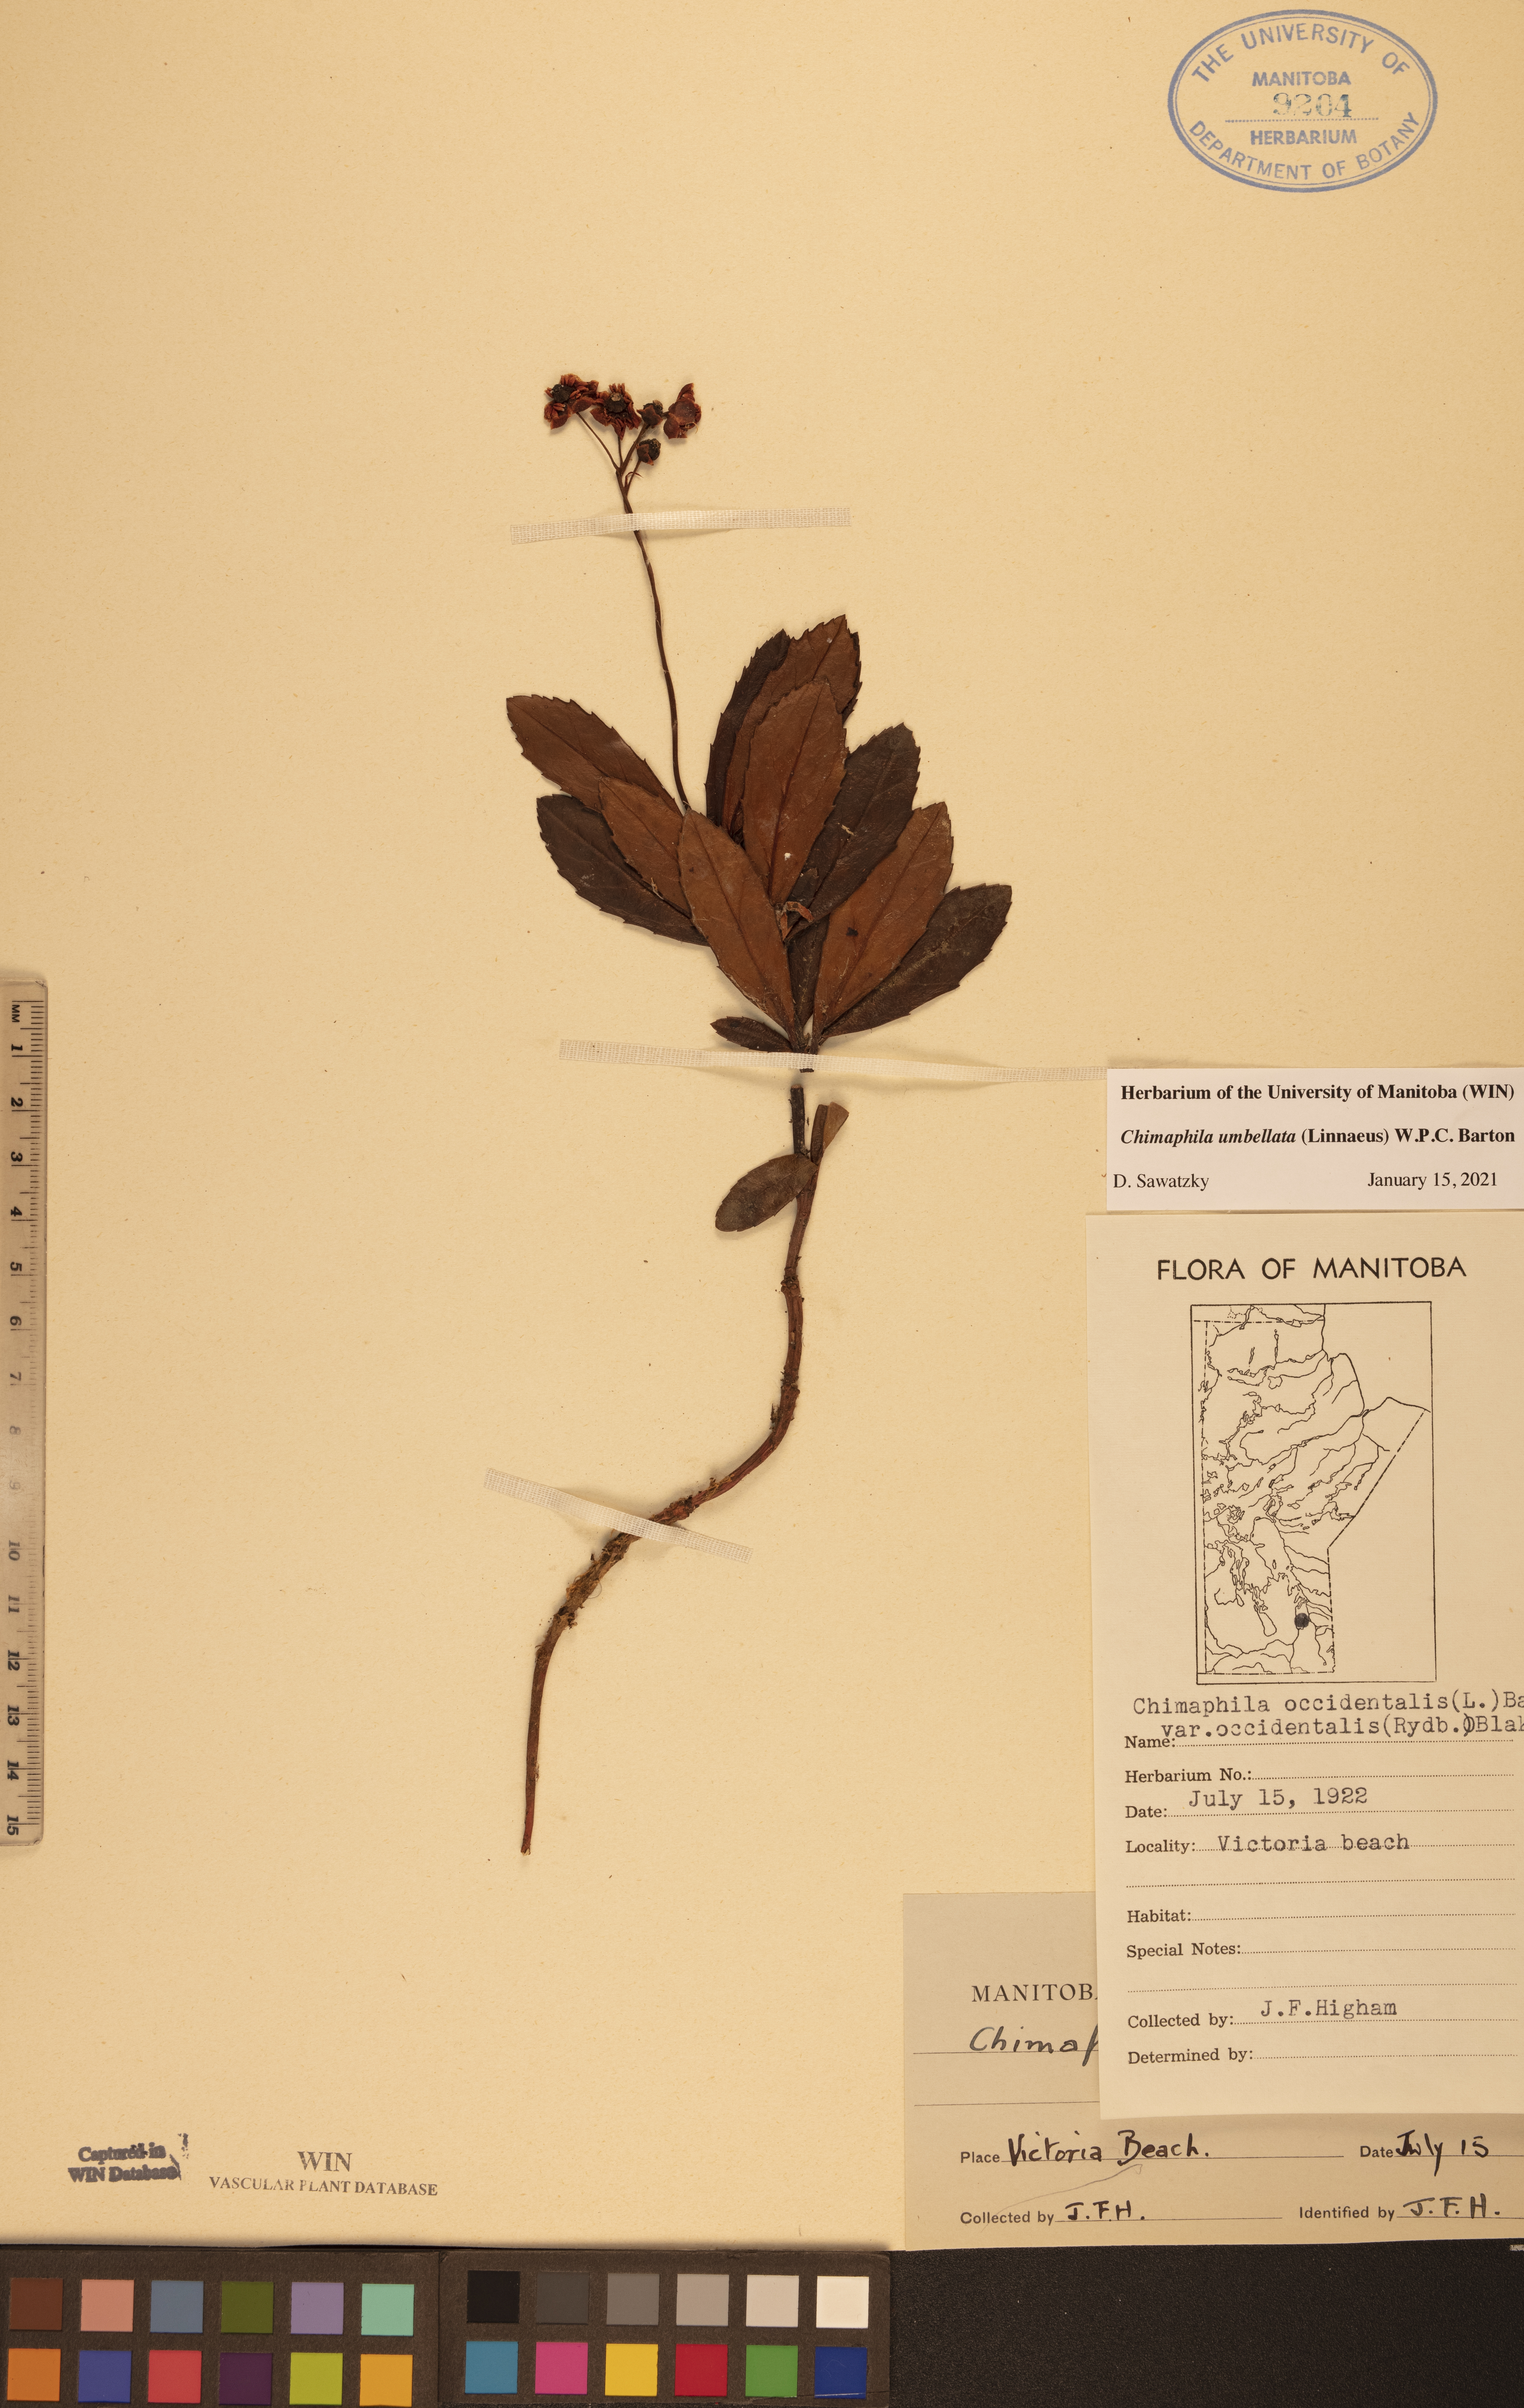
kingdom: Plantae
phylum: Tracheophyta
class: Magnoliopsida
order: Ericales
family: Ericaceae
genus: Chimaphila
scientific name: Chimaphila umbellata
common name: Pipsissewa
